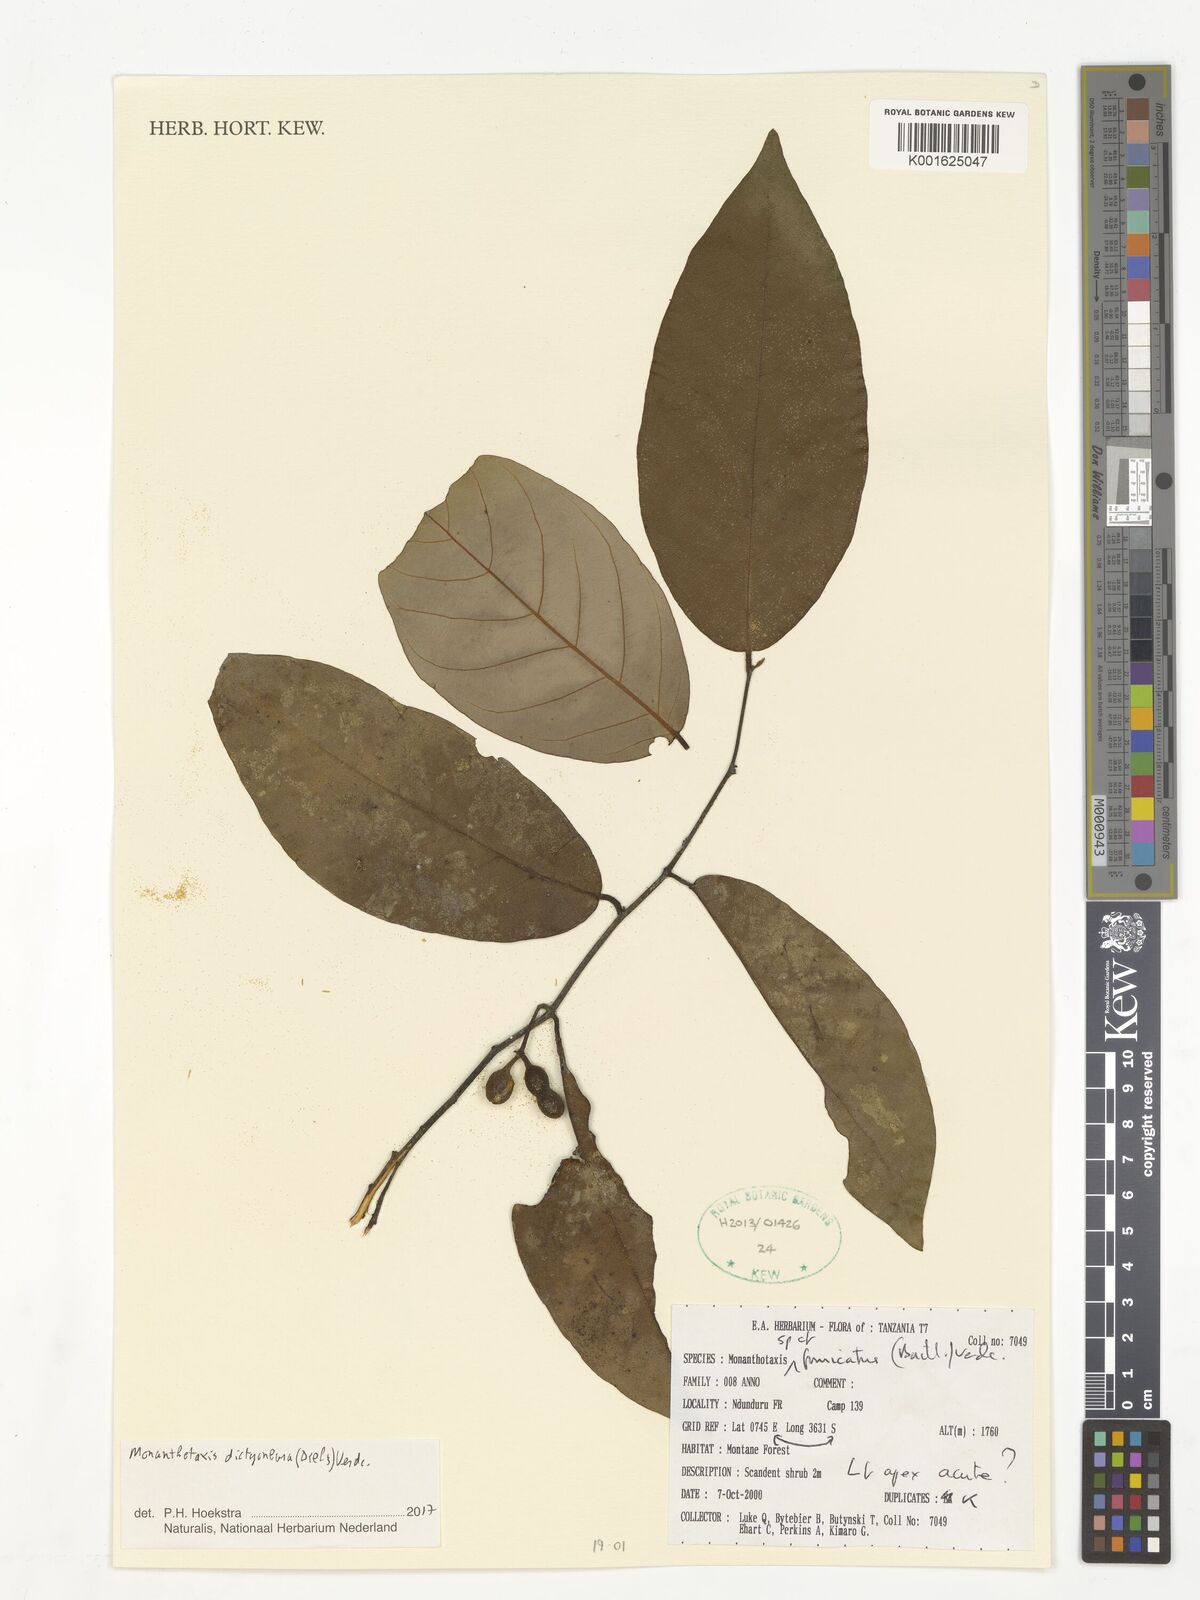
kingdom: Plantae
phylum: Tracheophyta
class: Magnoliopsida
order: Magnoliales
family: Annonaceae
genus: Monanthotaxis
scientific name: Monanthotaxis dictyoneura
